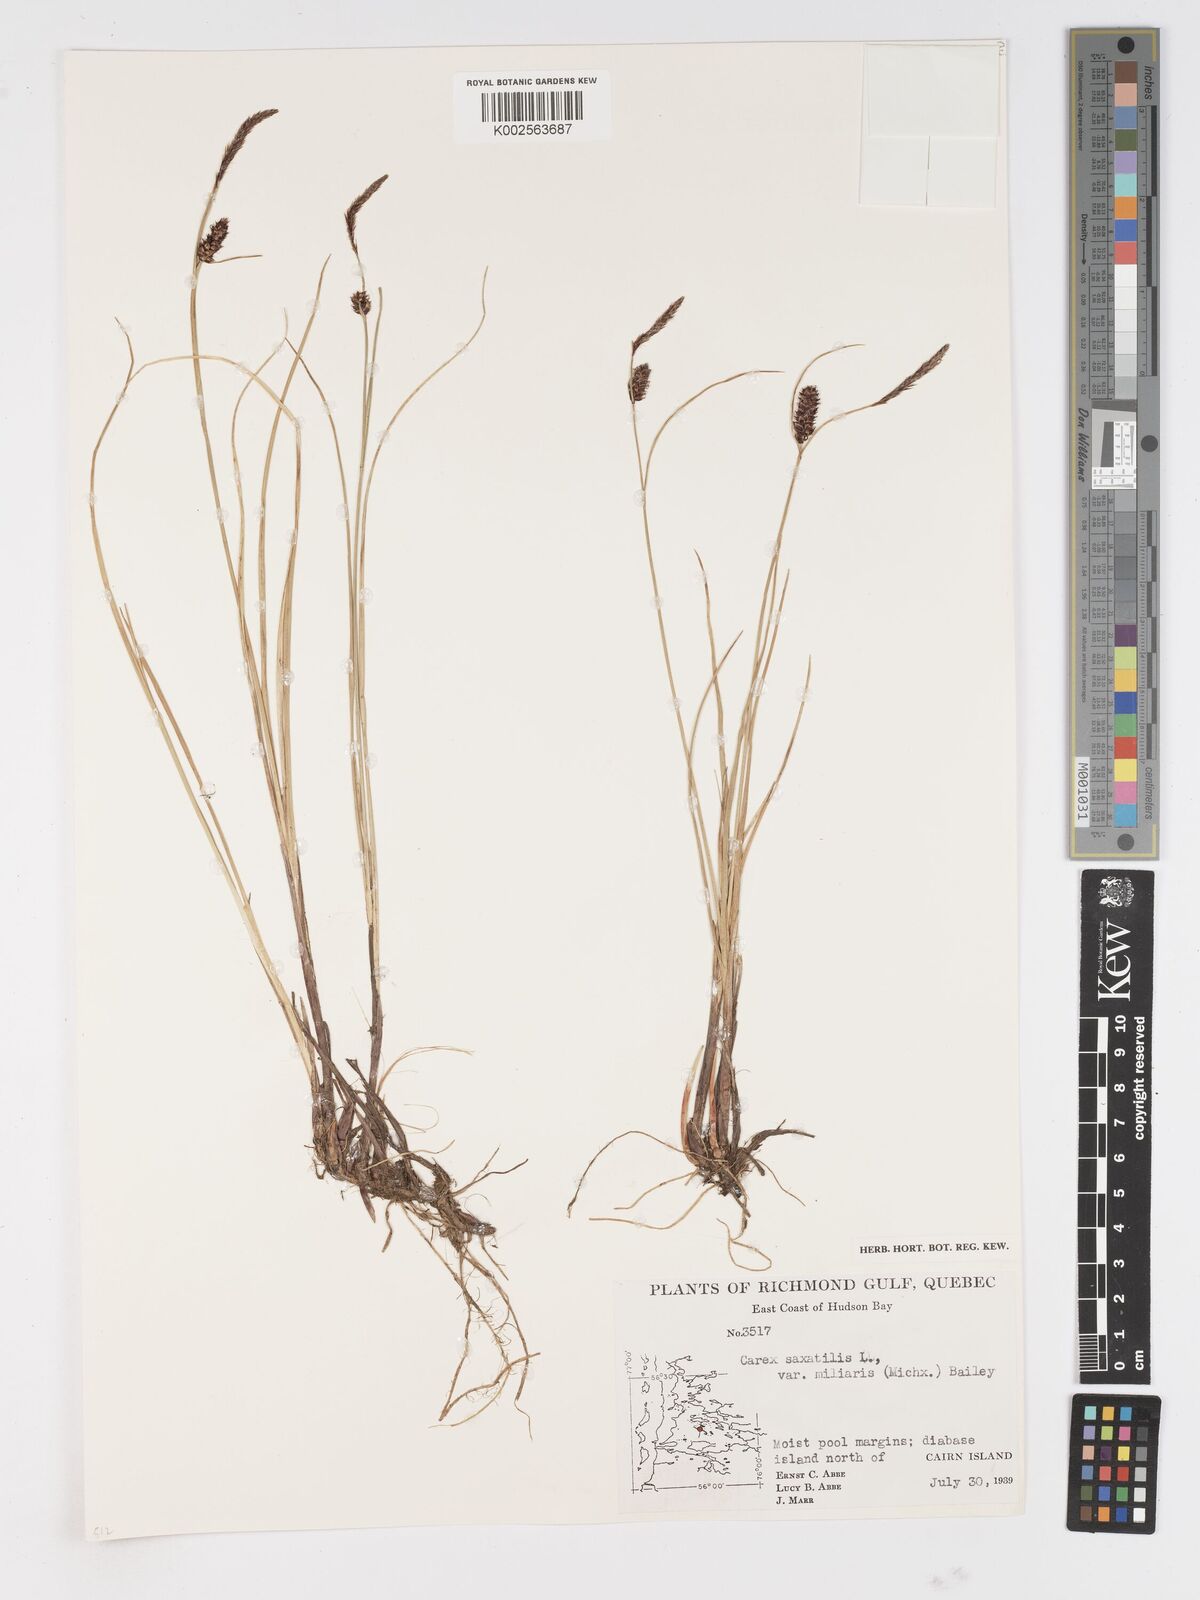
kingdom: Plantae
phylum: Tracheophyta
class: Liliopsida
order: Poales
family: Cyperaceae
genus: Carex
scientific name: Carex miliaris
